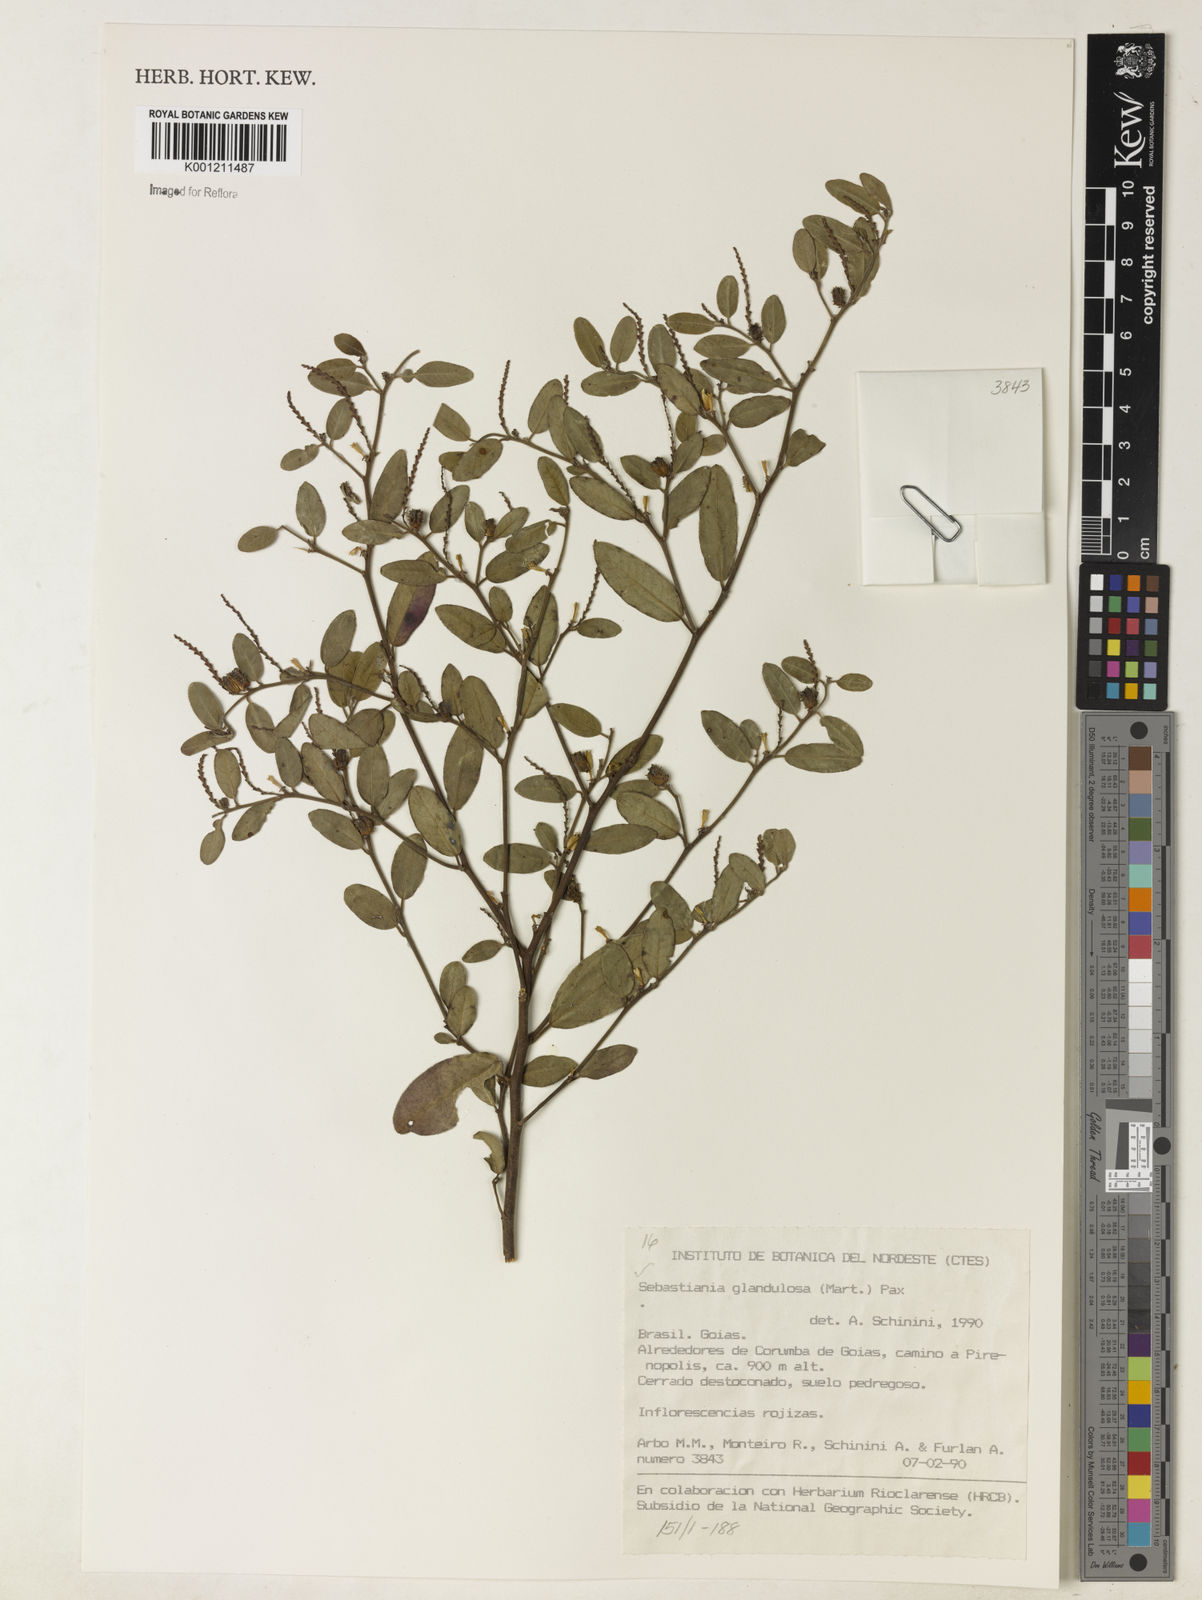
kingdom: Plantae
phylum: Tracheophyta
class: Magnoliopsida
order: Malpighiales
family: Euphorbiaceae
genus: Microstachys
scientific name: Microstachys glandulosa
